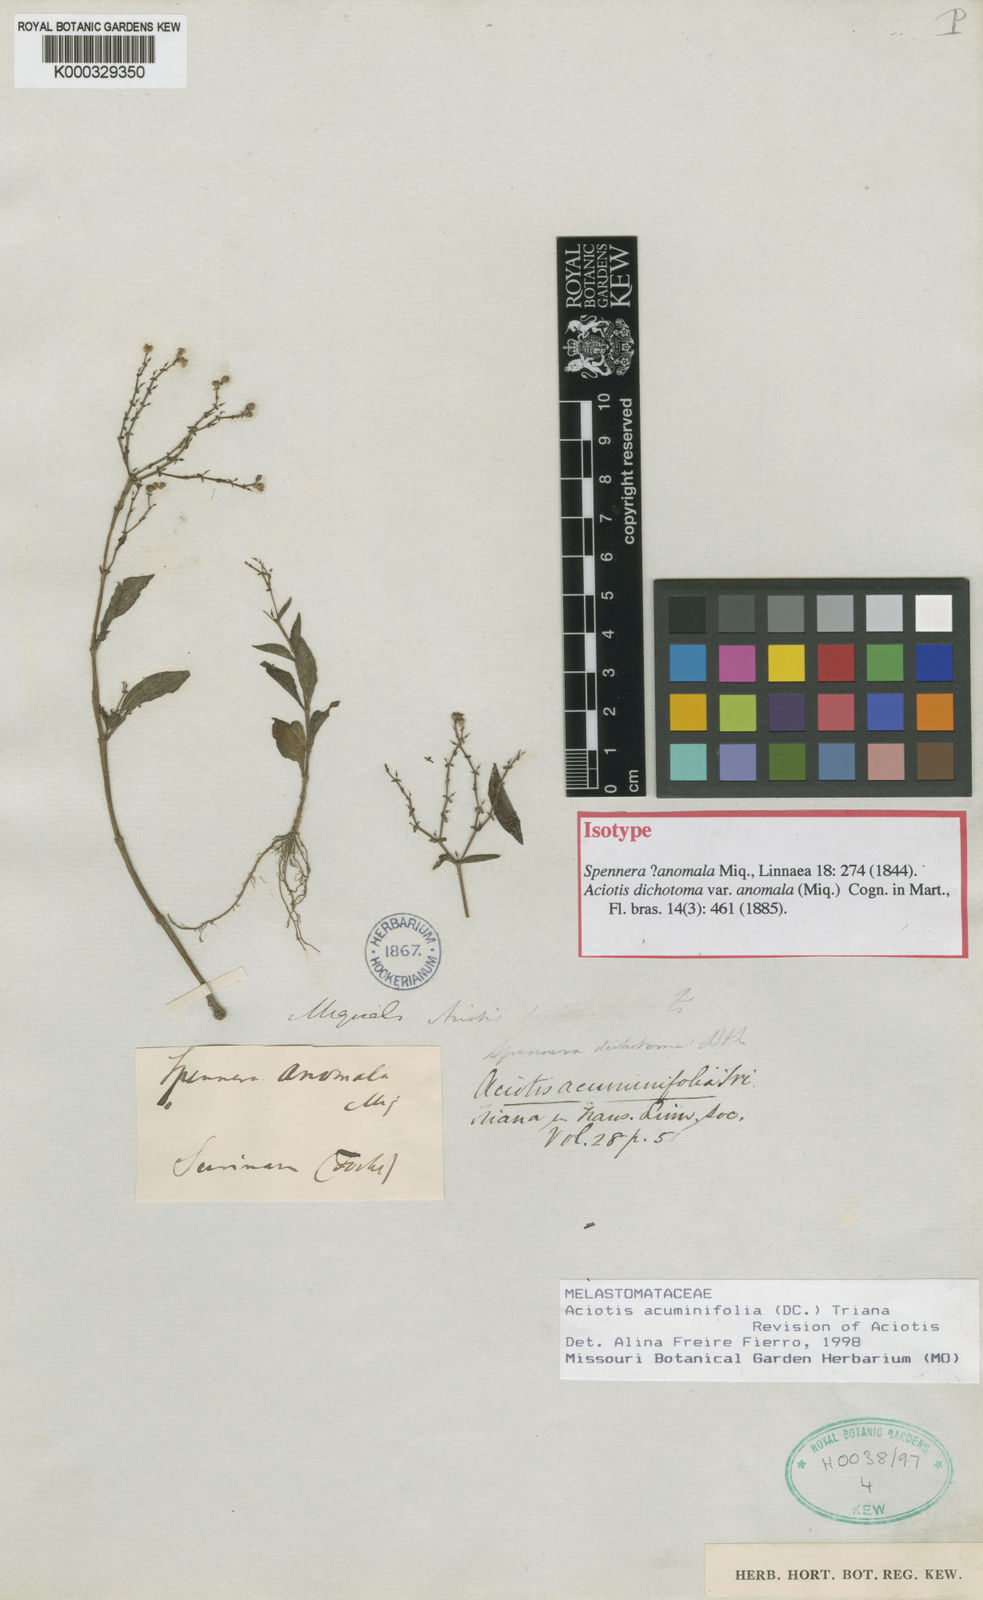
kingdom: Plantae
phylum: Tracheophyta
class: Magnoliopsida
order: Myrtales
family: Melastomataceae
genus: Aciotis
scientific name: Aciotis acuminifolia
